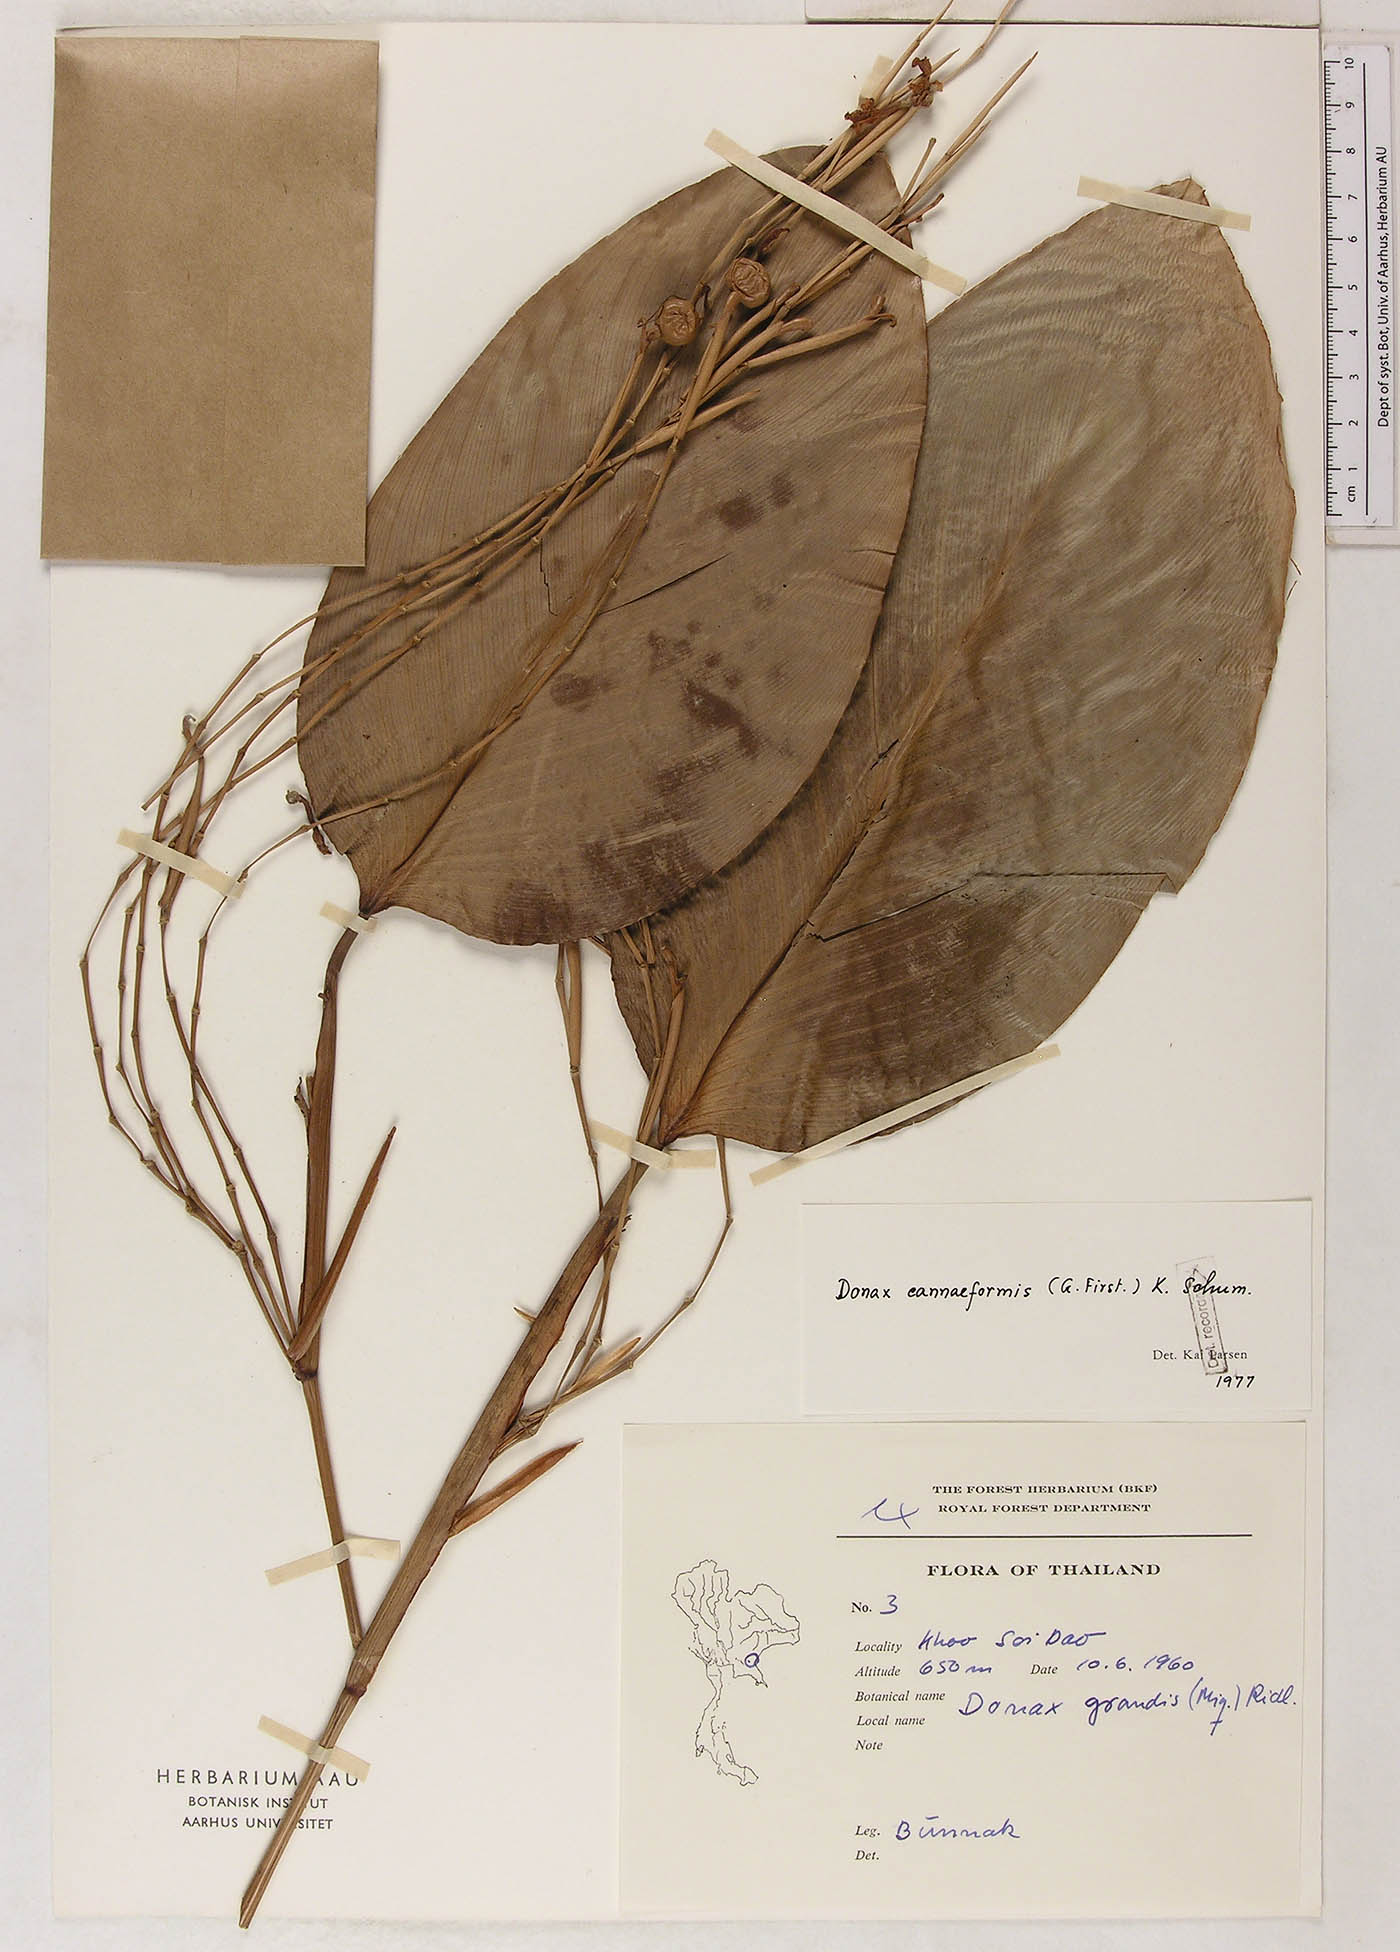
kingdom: Plantae
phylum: Tracheophyta
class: Liliopsida
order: Zingiberales
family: Marantaceae
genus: Donax
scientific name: Donax canniformis
